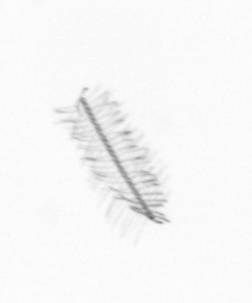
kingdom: Chromista
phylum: Ochrophyta
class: Bacillariophyceae
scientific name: Bacillariophyceae
